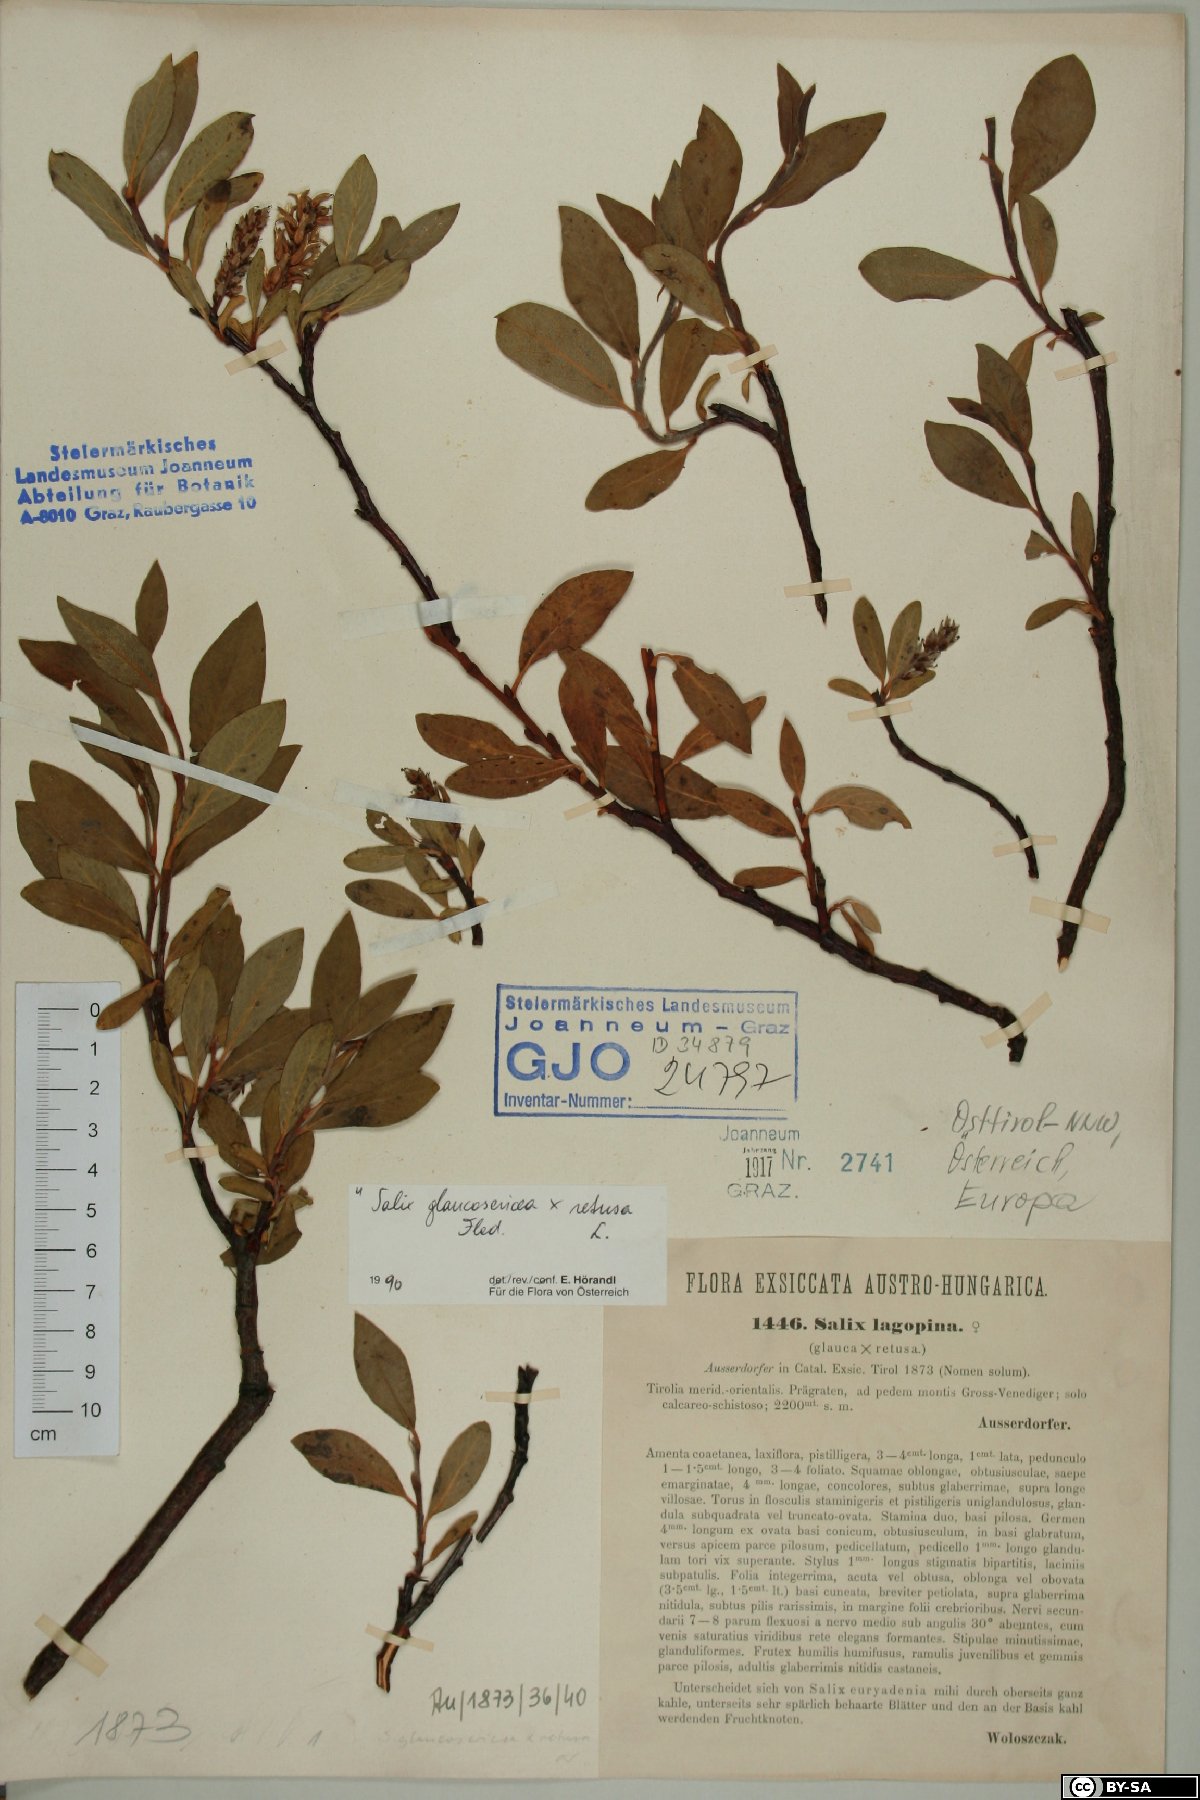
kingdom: Plantae
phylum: Tracheophyta
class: Magnoliopsida
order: Malpighiales
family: Salicaceae
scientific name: Salicaceae
